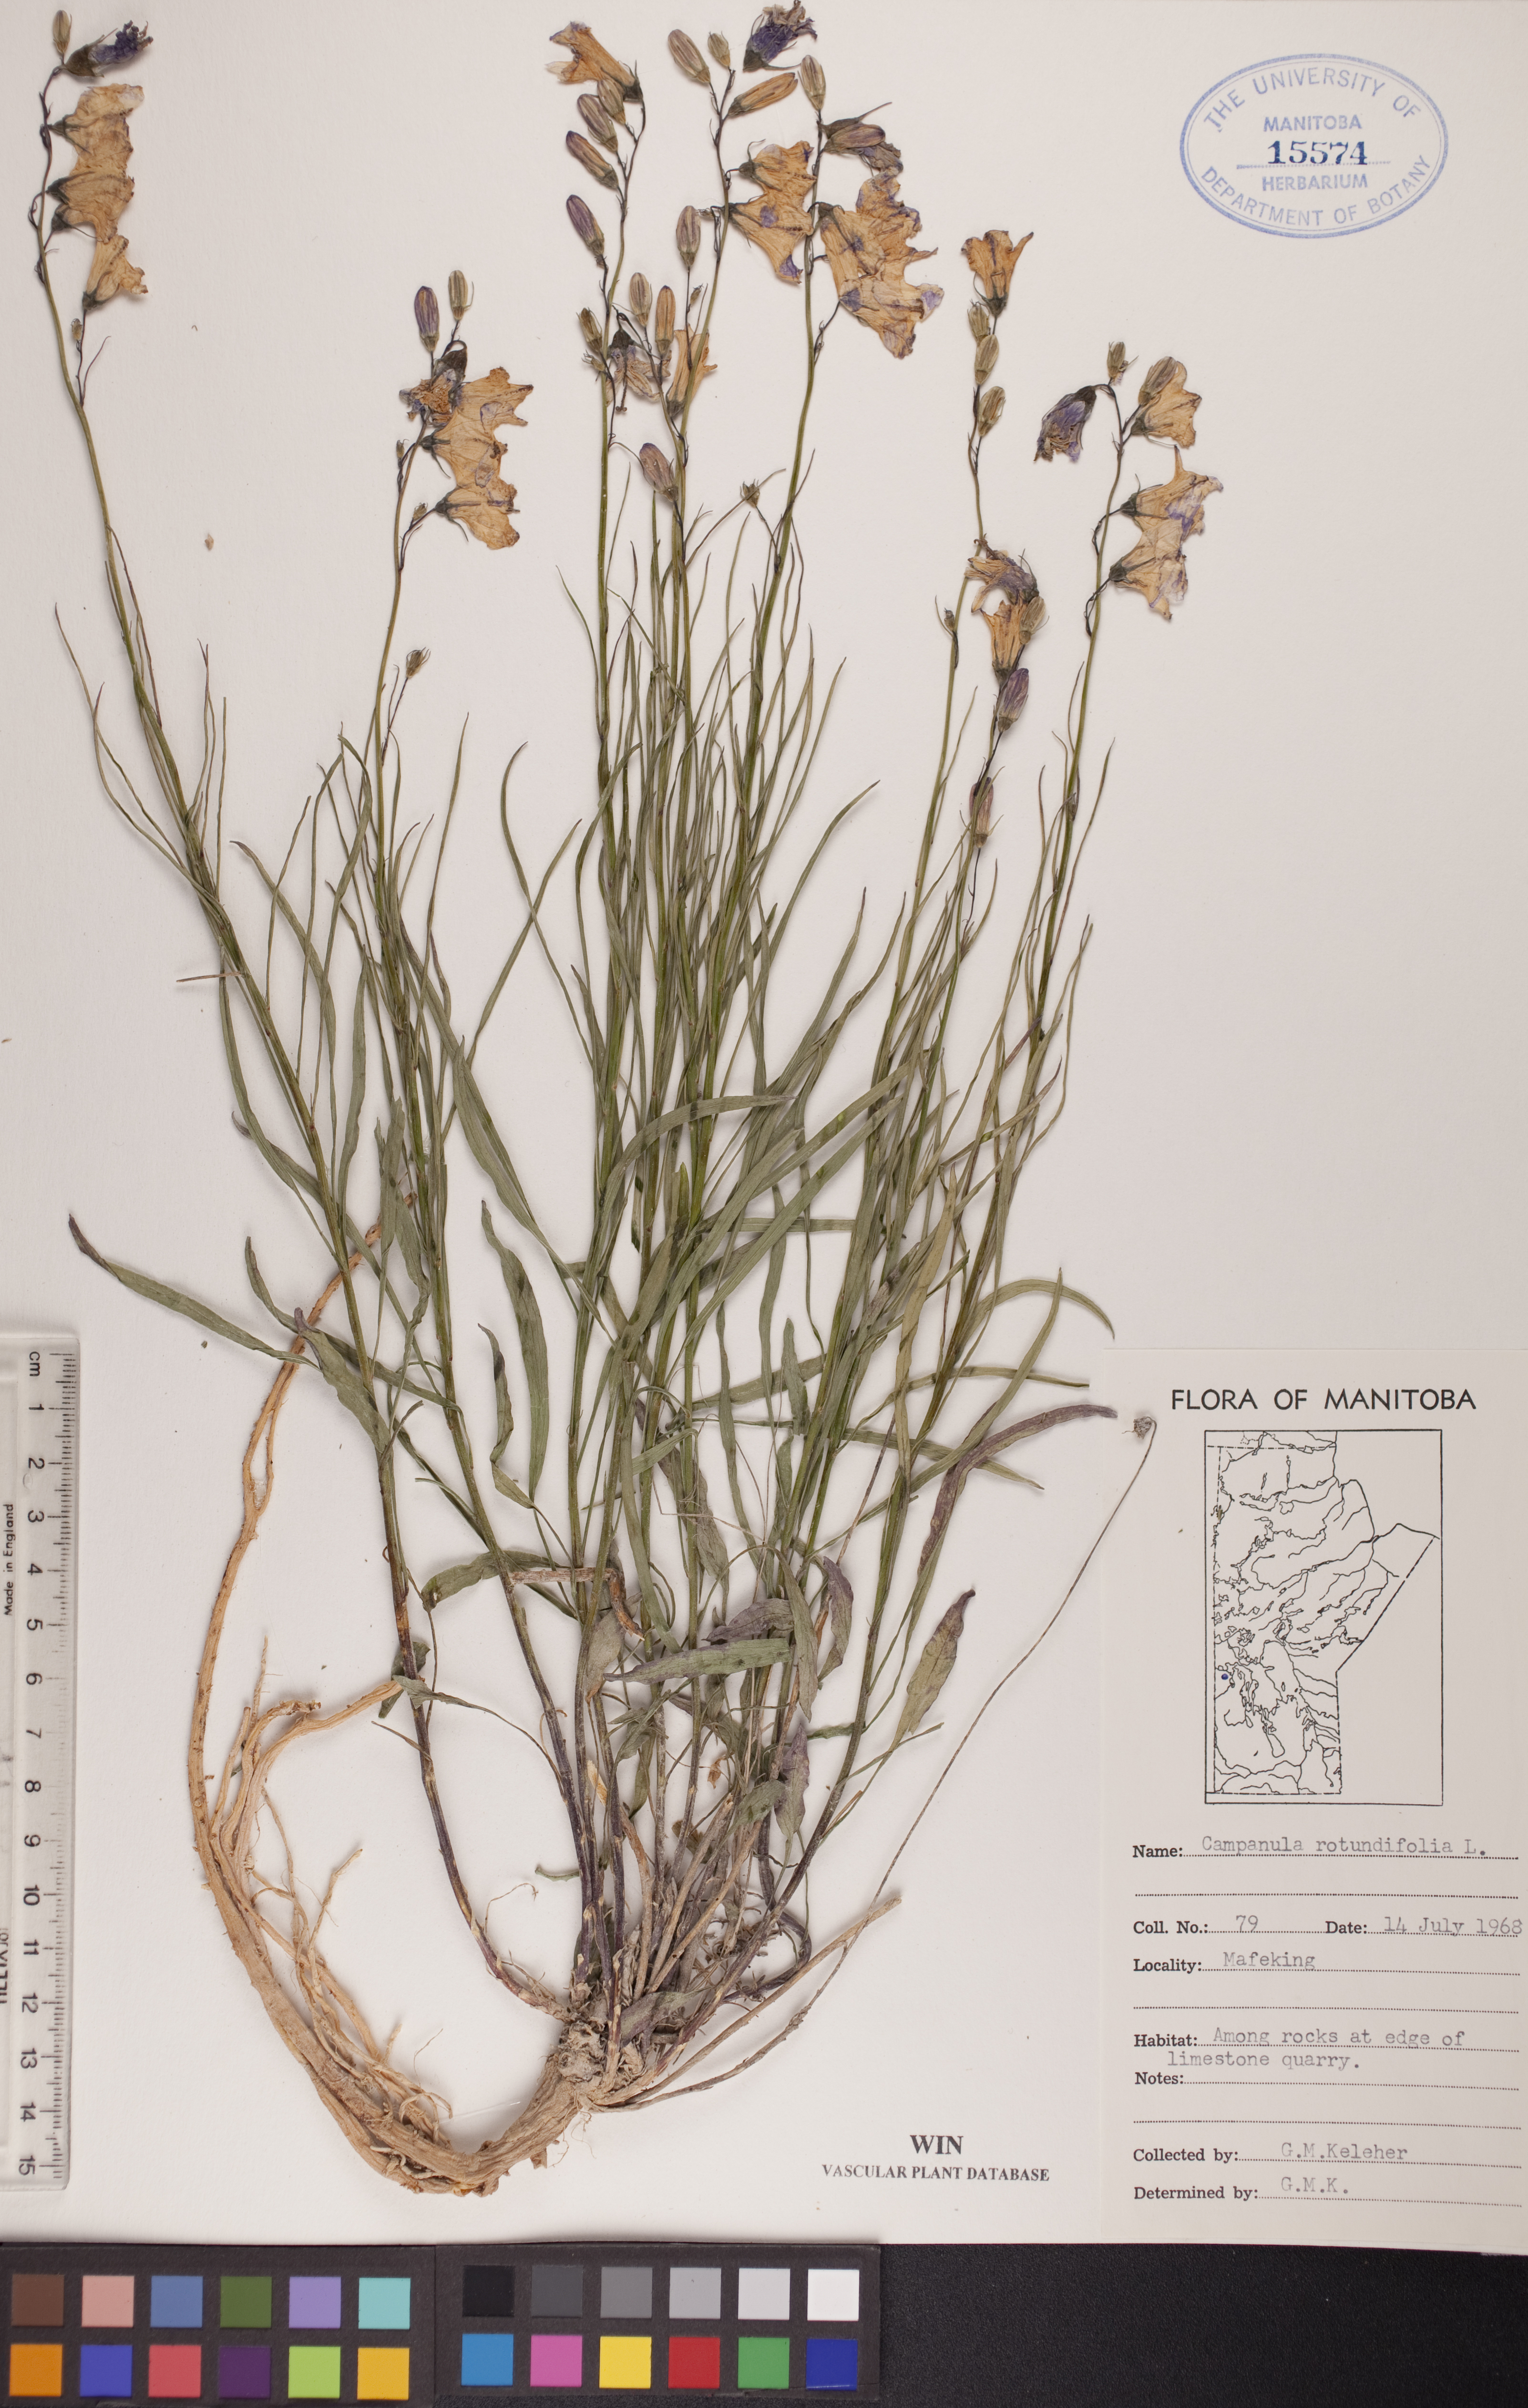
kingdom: Plantae
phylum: Tracheophyta
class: Magnoliopsida
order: Asterales
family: Campanulaceae
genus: Campanula
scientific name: Campanula rotundifolia
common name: Harebell
